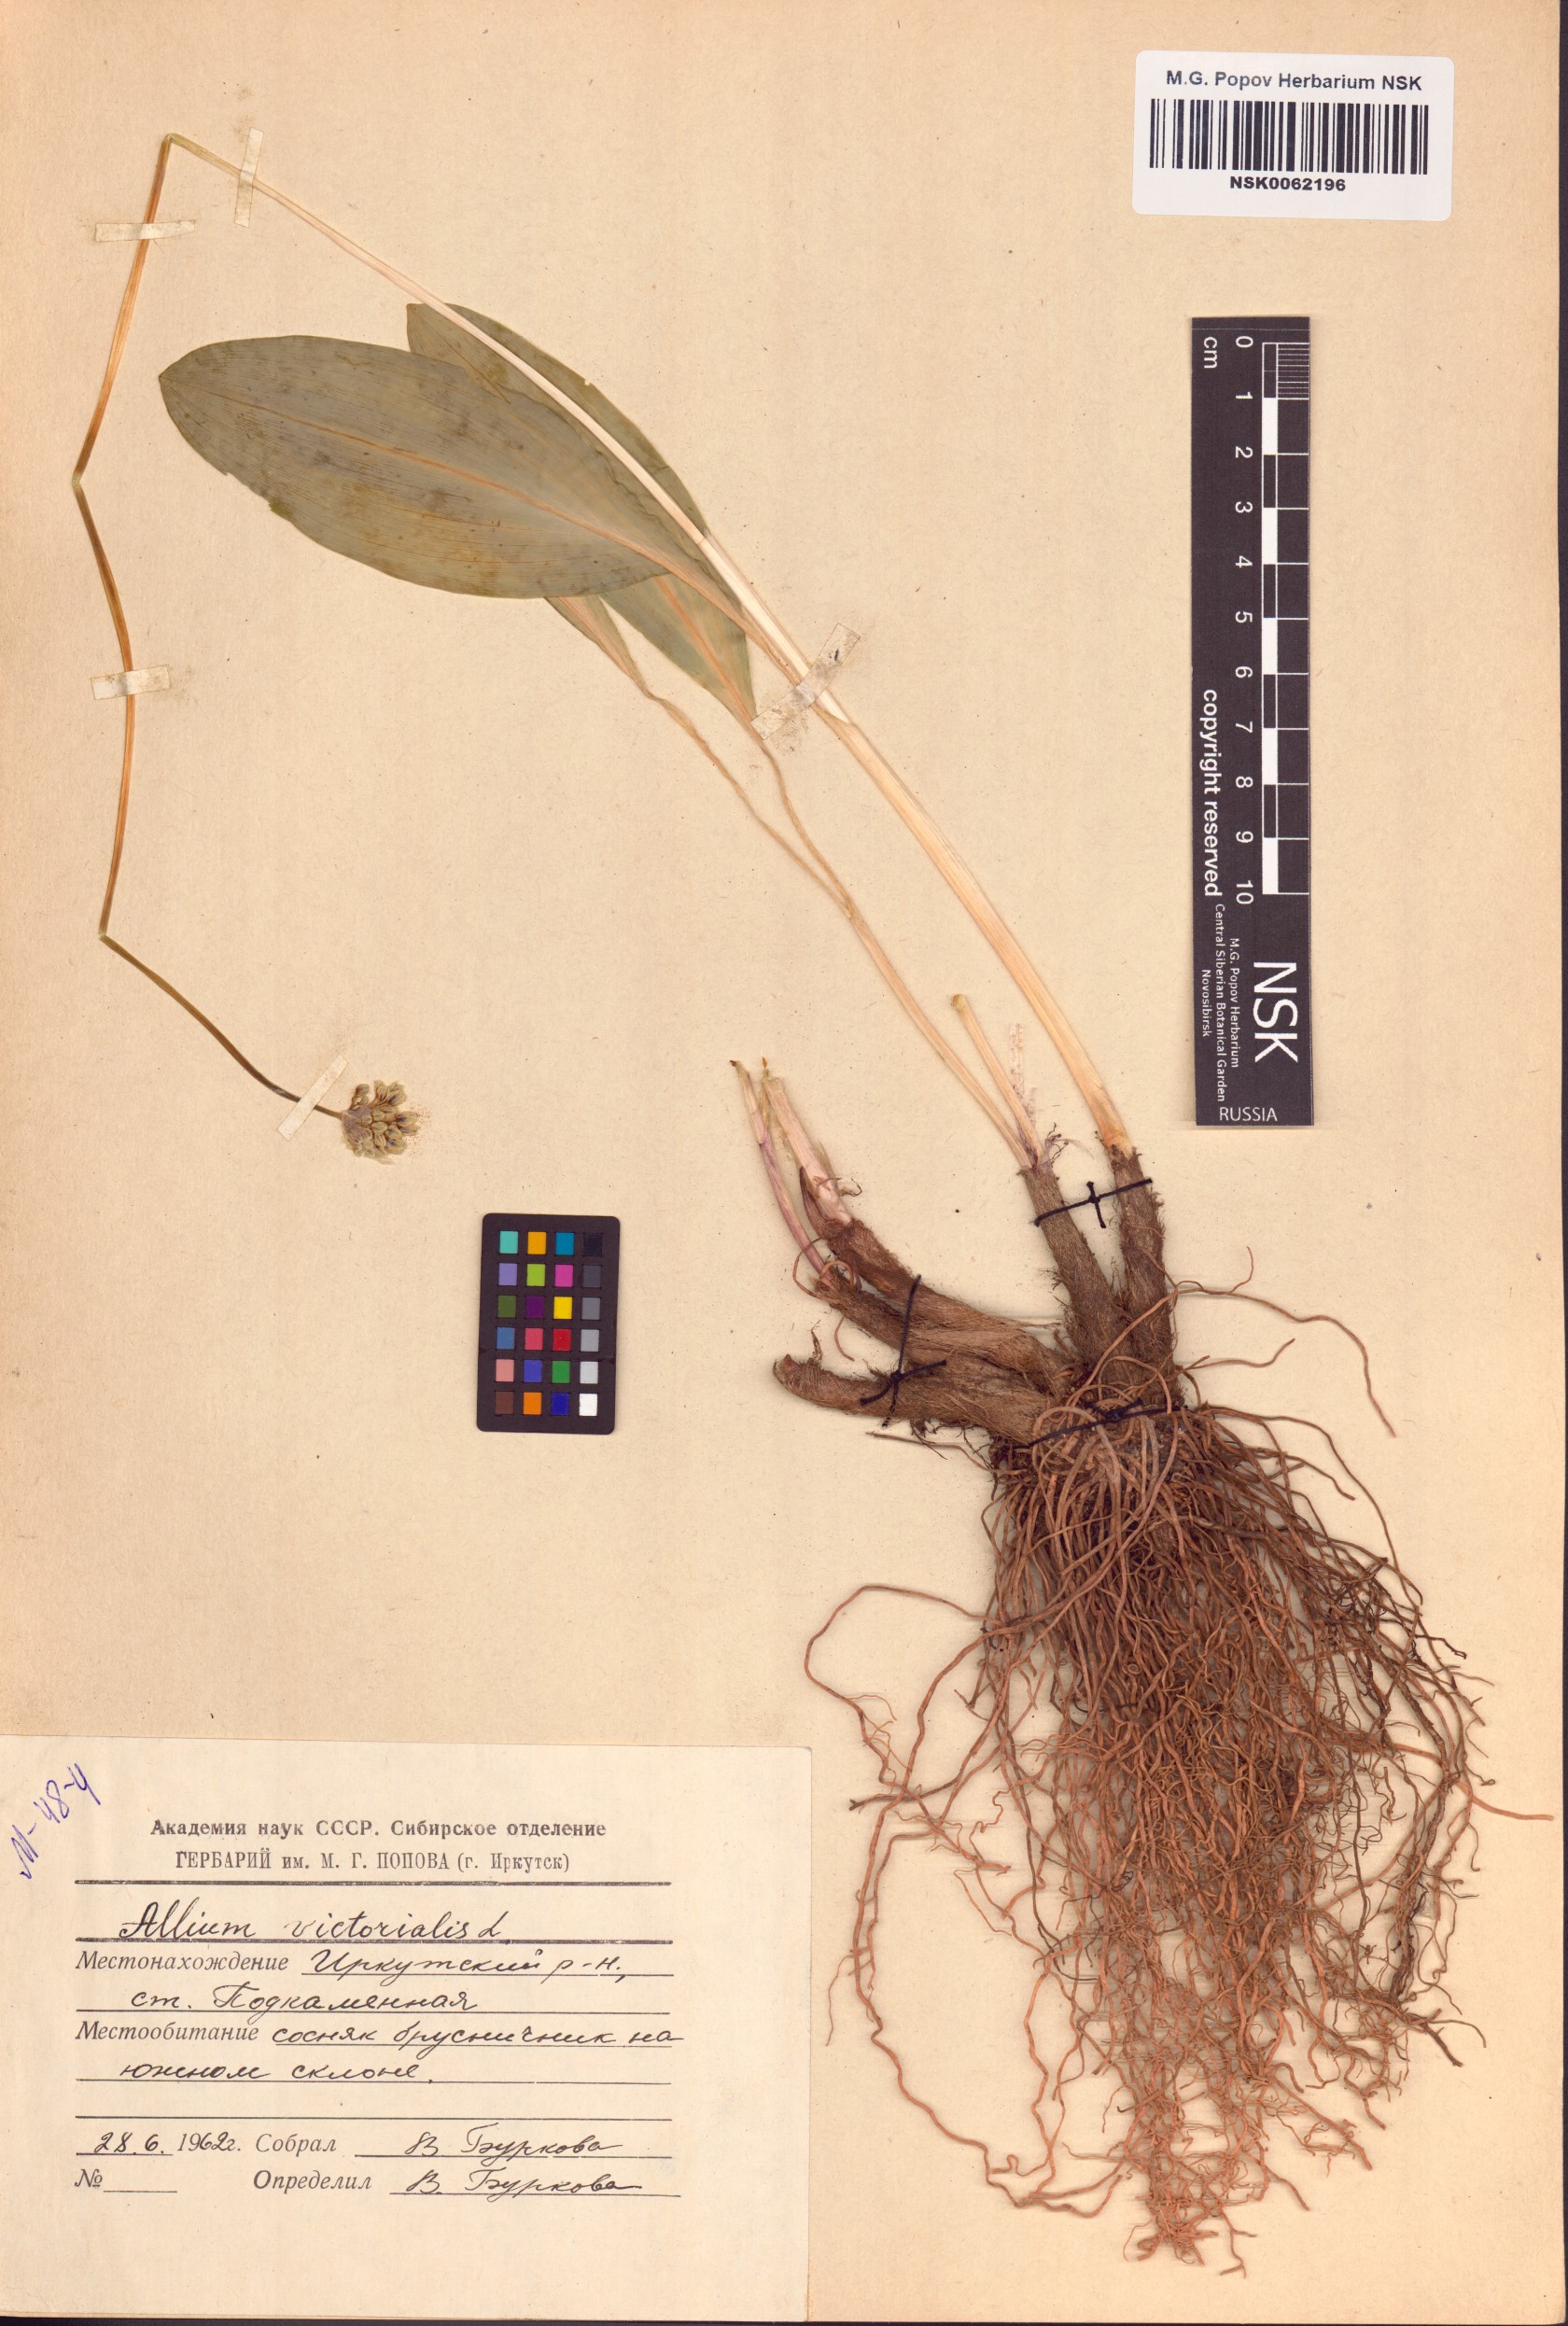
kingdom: Plantae
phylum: Tracheophyta
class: Liliopsida
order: Asparagales
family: Amaryllidaceae
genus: Allium
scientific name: Allium victorialis
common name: Alpine leek
